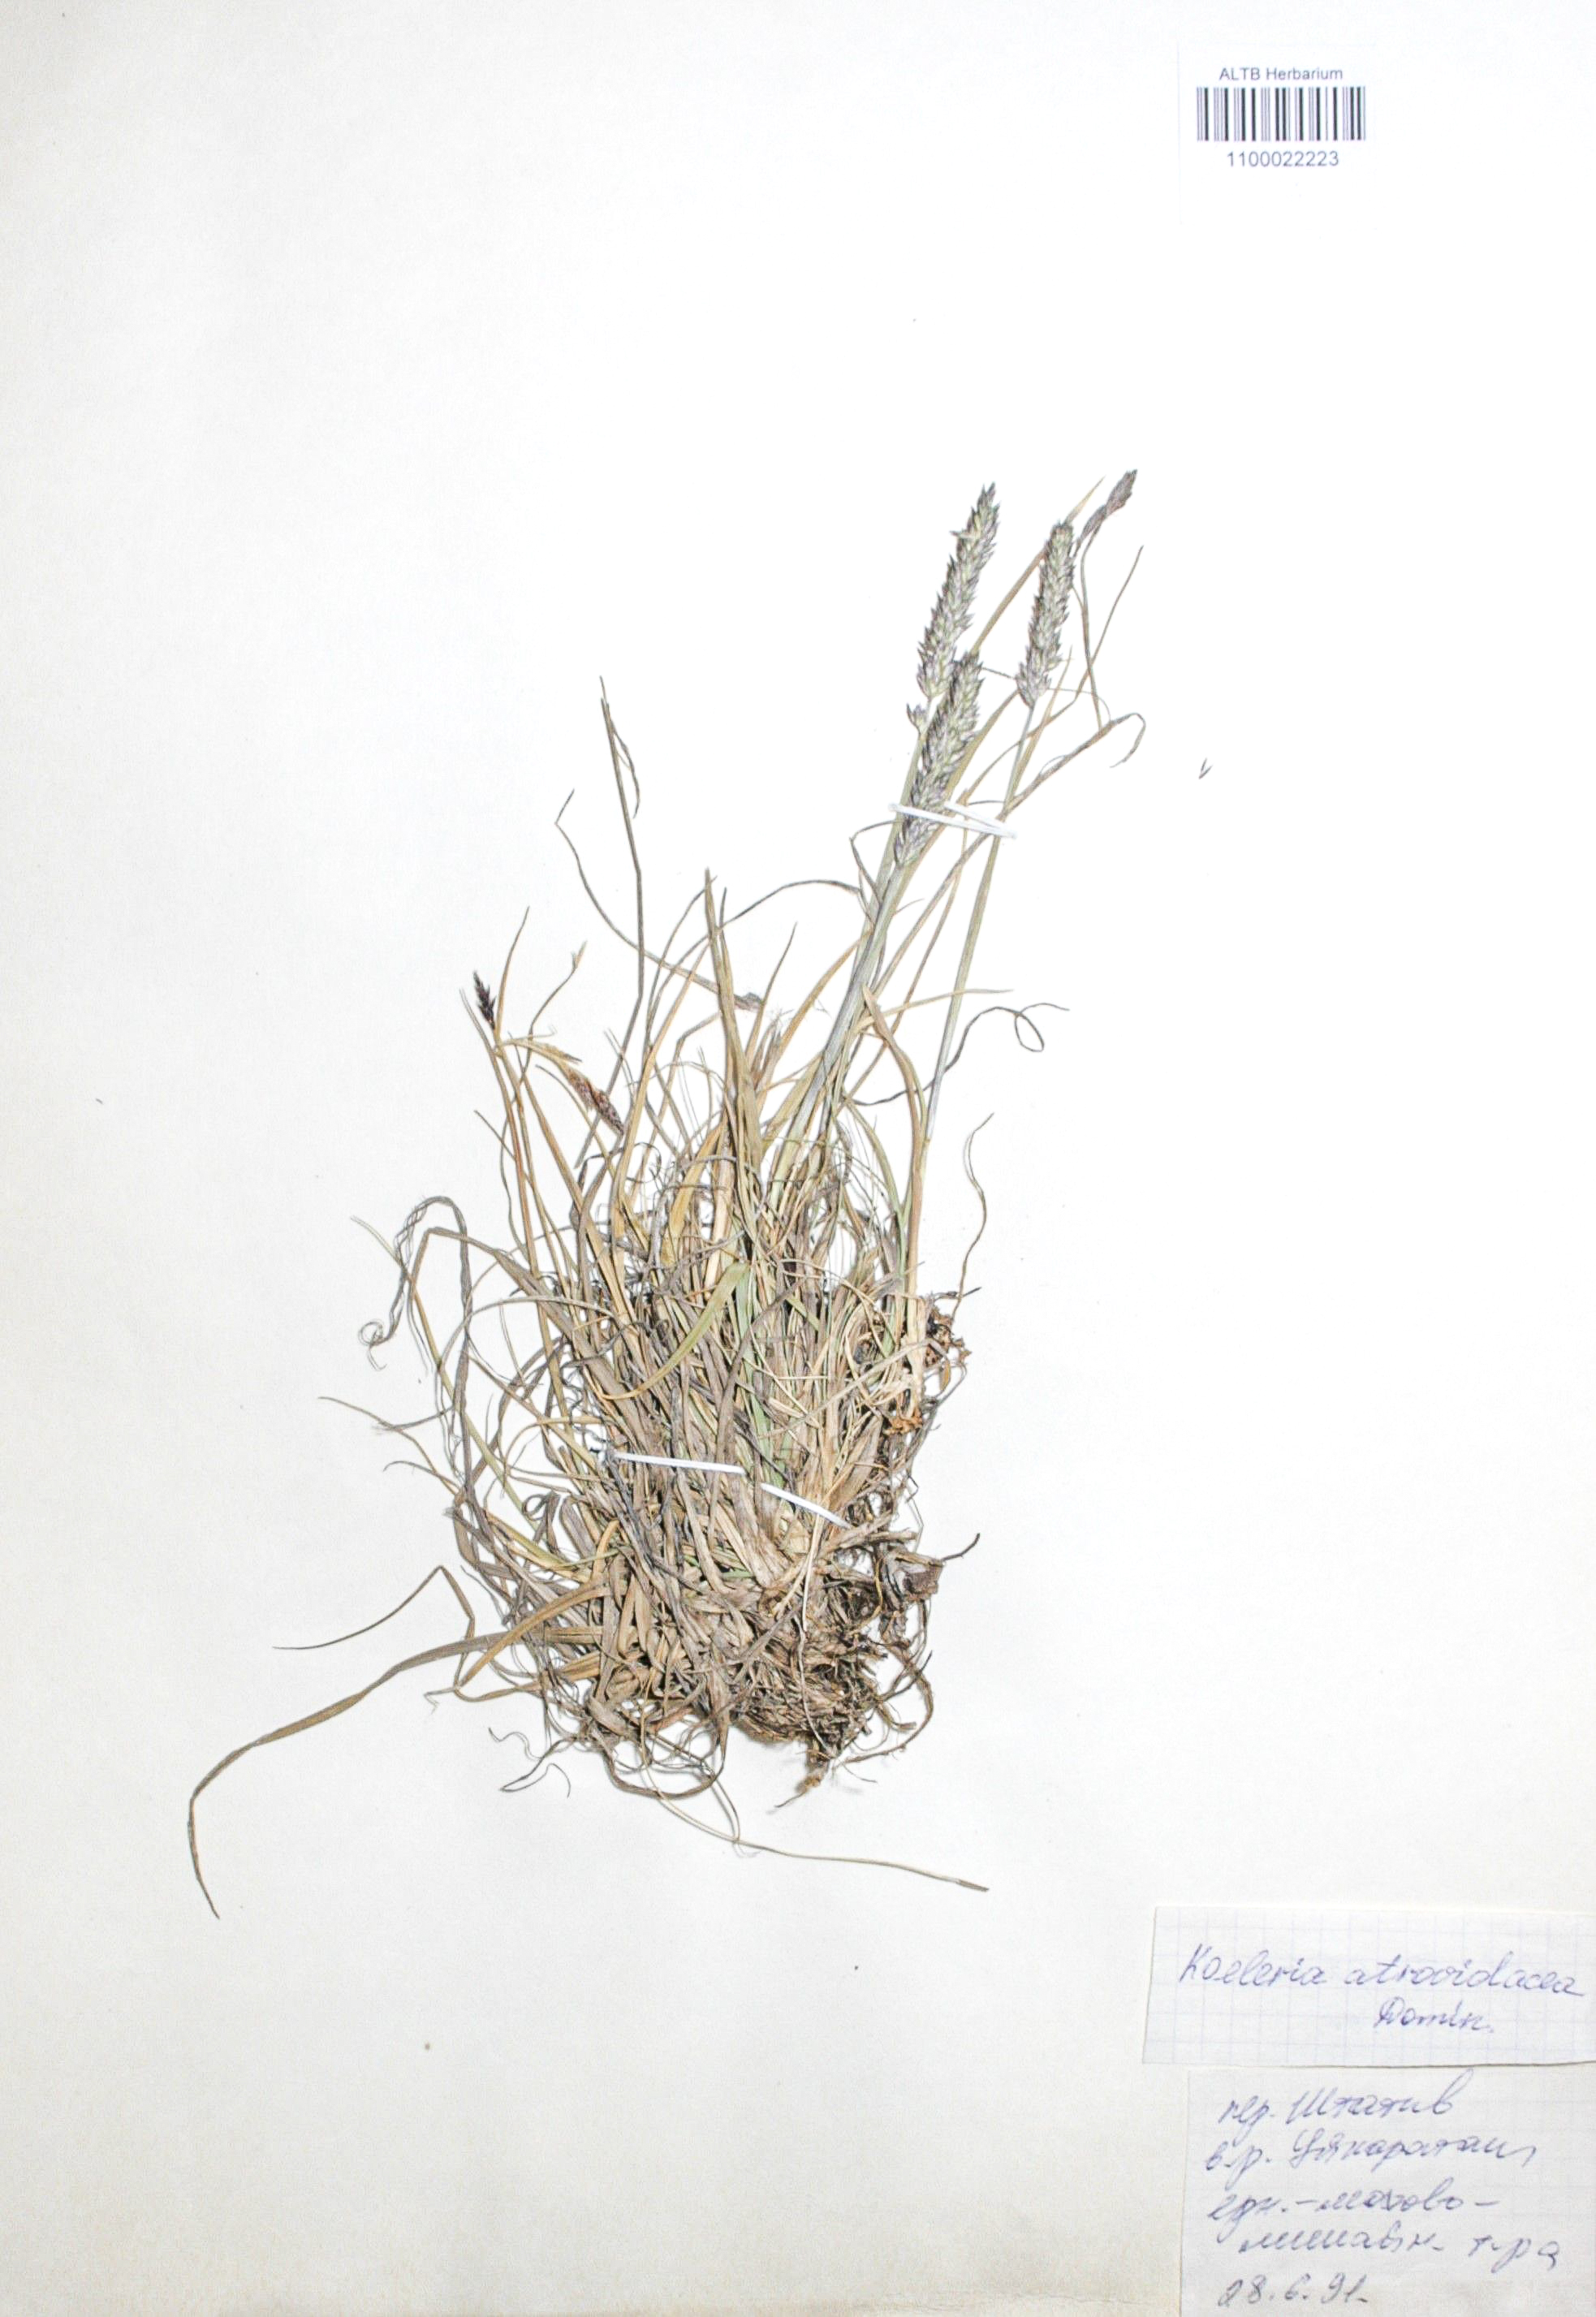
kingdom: Plantae
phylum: Tracheophyta
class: Liliopsida
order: Poales
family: Poaceae
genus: Koeleria
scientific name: Koeleria asiatica
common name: Eurasian junegrass
